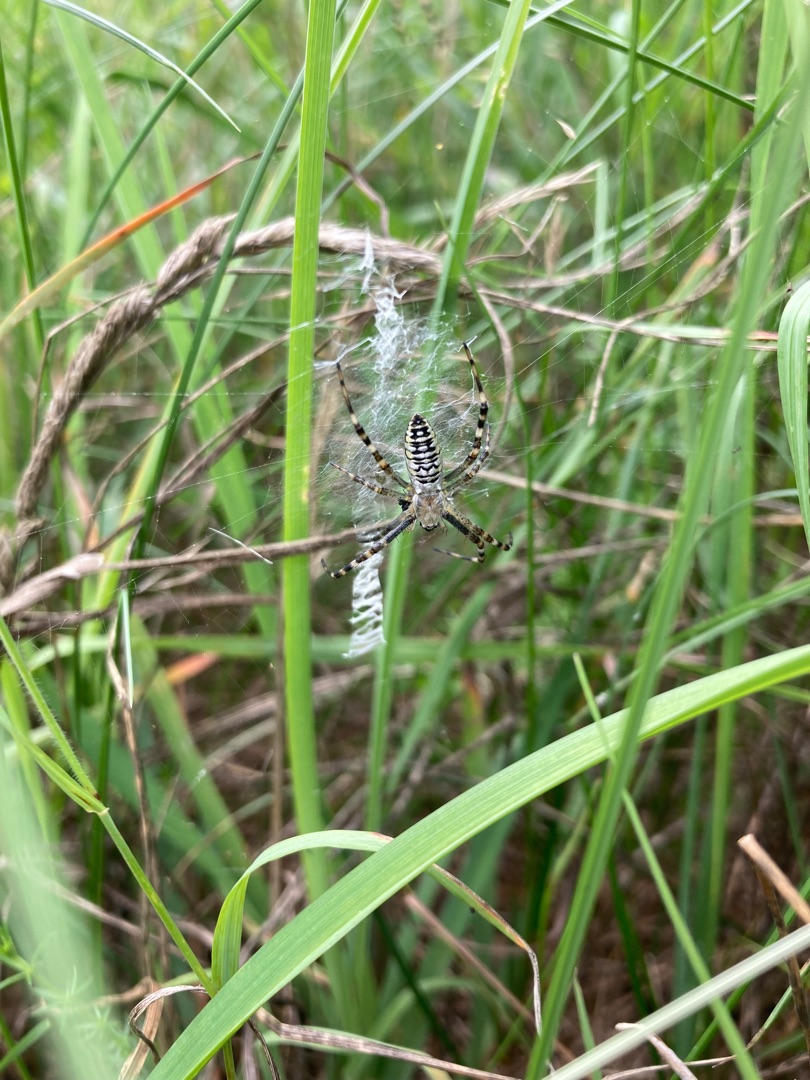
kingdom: Animalia
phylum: Arthropoda
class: Arachnida
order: Araneae
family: Araneidae
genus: Argiope
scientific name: Argiope bruennichi
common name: Hvepseedderkop
